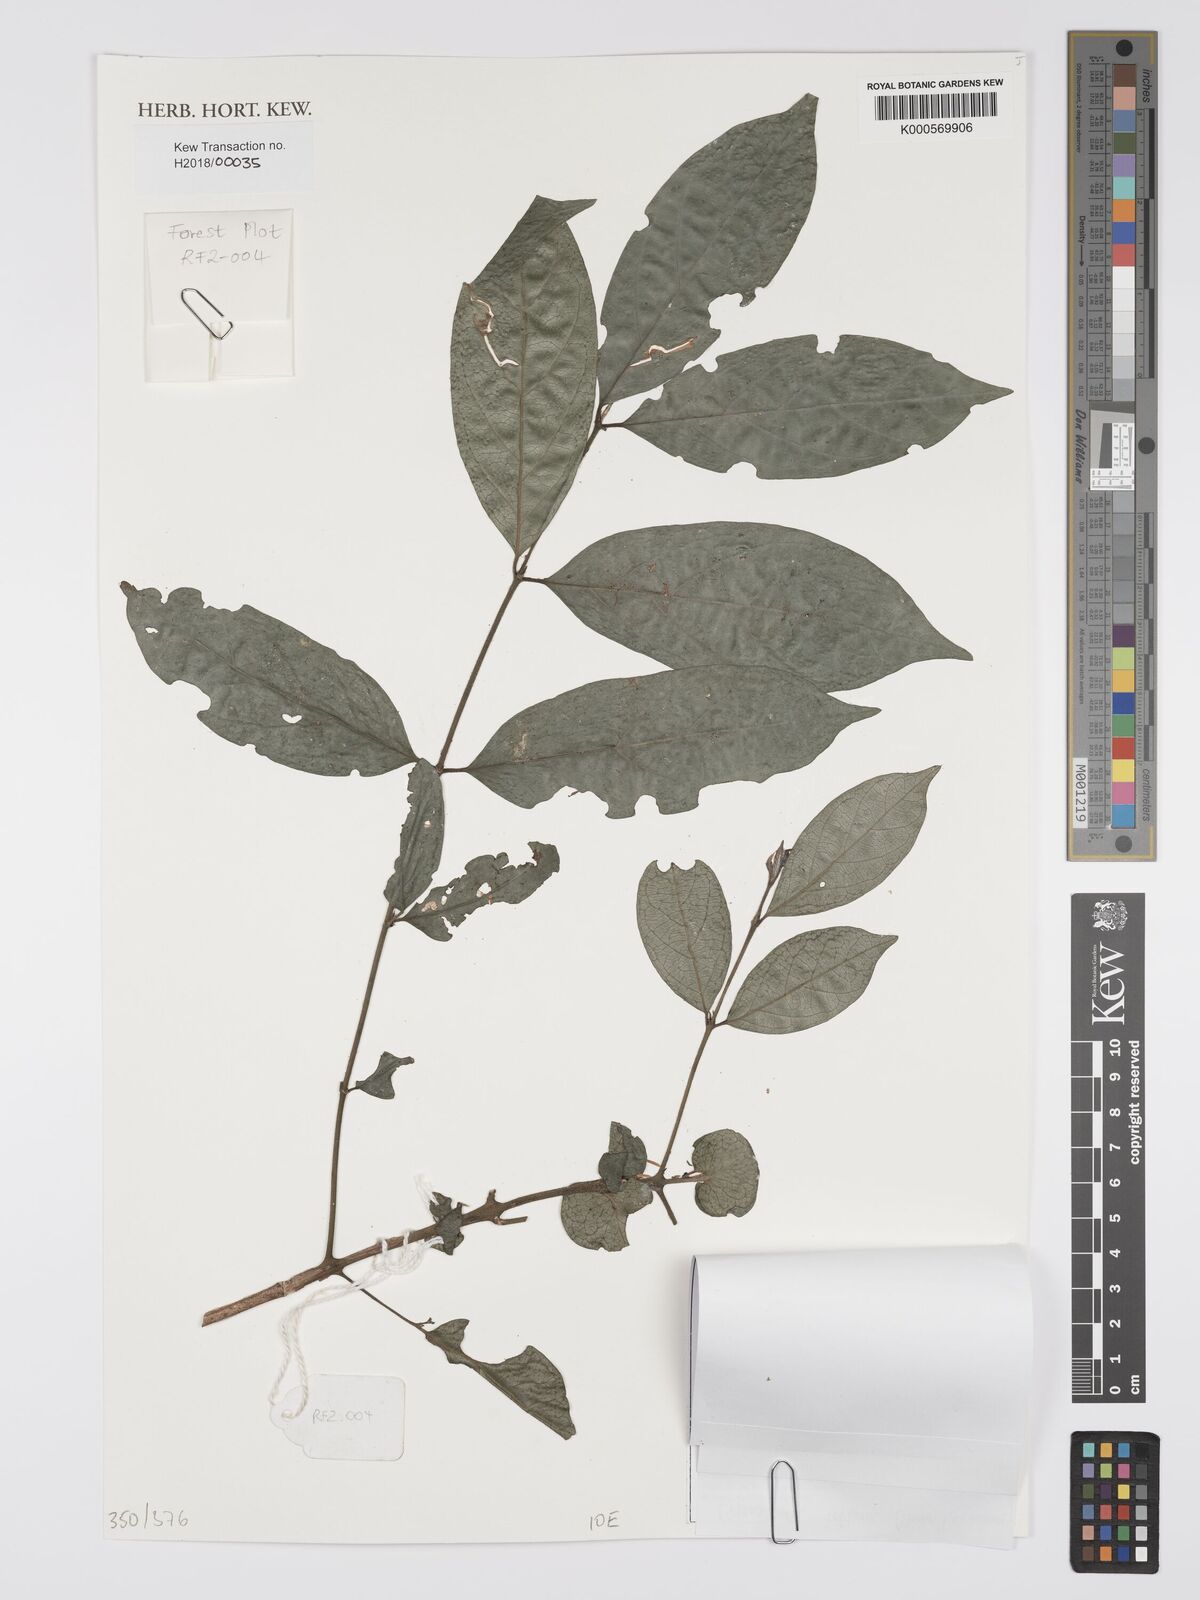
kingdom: Plantae
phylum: Tracheophyta
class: Magnoliopsida
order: Gentianales
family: Rubiaceae
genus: Cremaspora
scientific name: Cremaspora triflora
